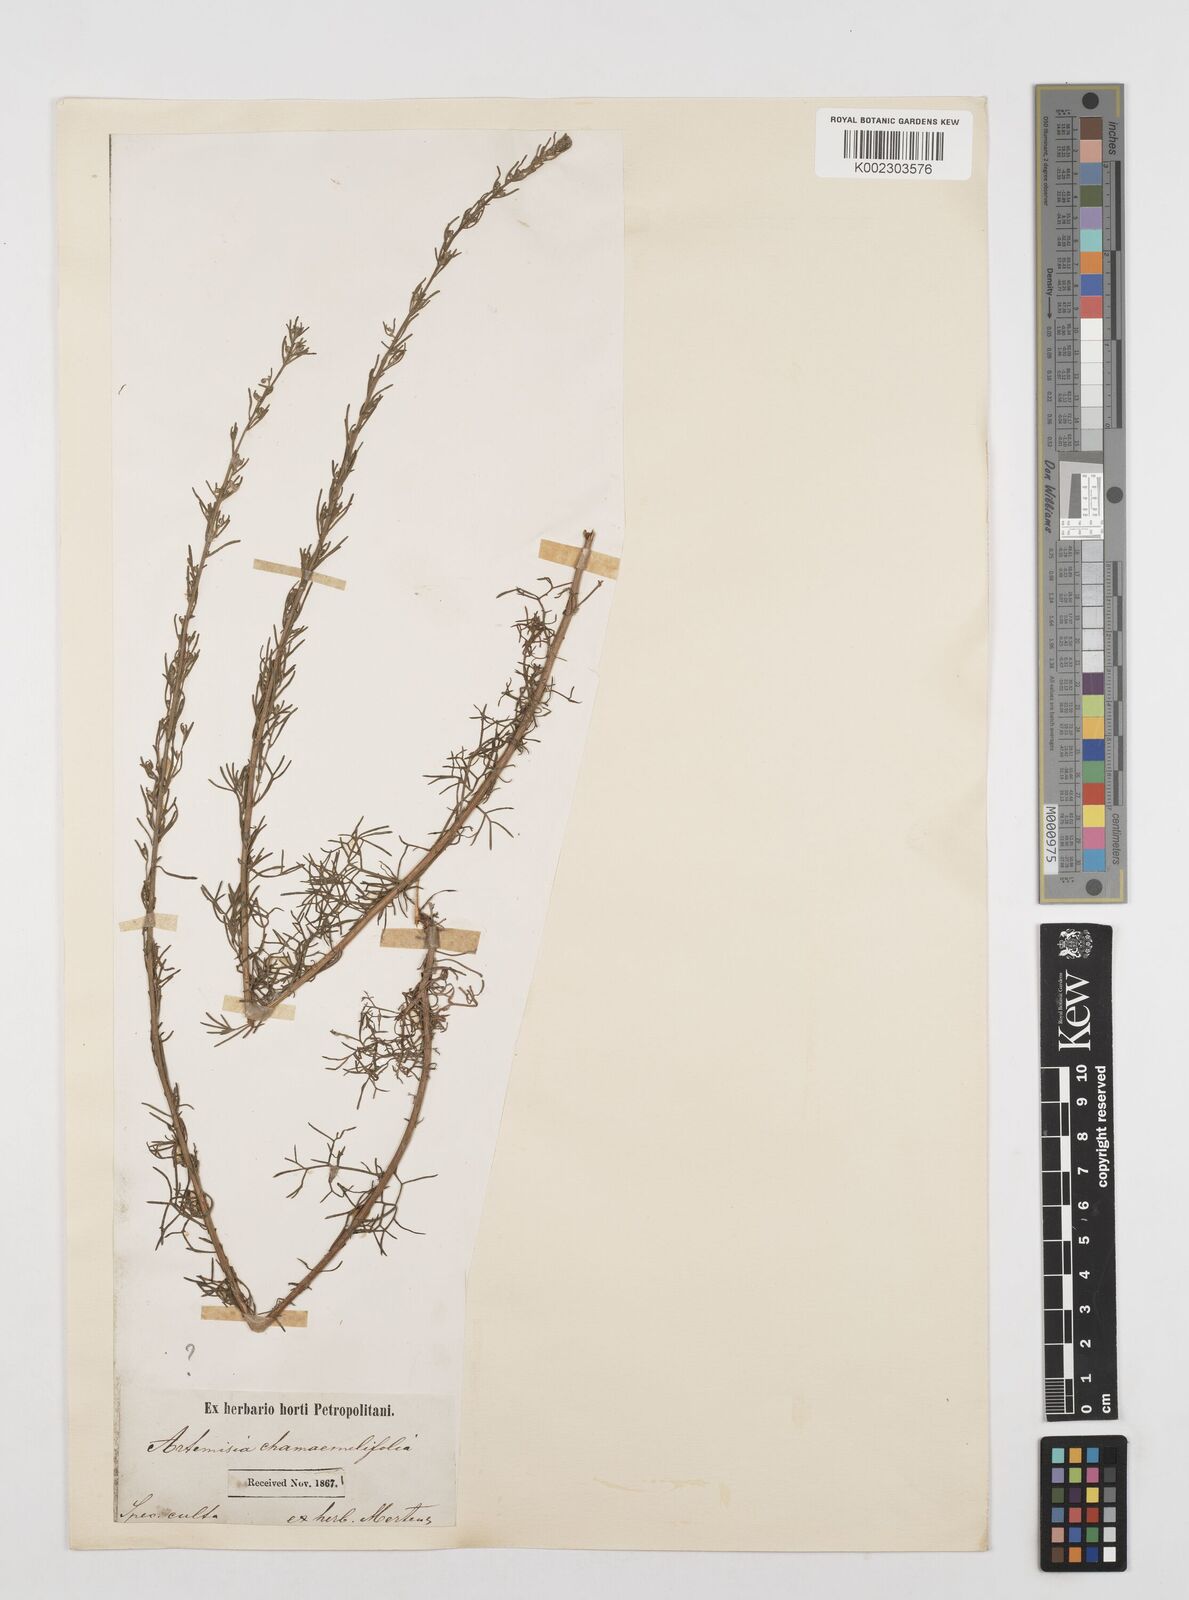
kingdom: Plantae
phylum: Tracheophyta
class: Magnoliopsida
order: Asterales
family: Asteraceae
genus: Artemisia
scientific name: Artemisia alba
